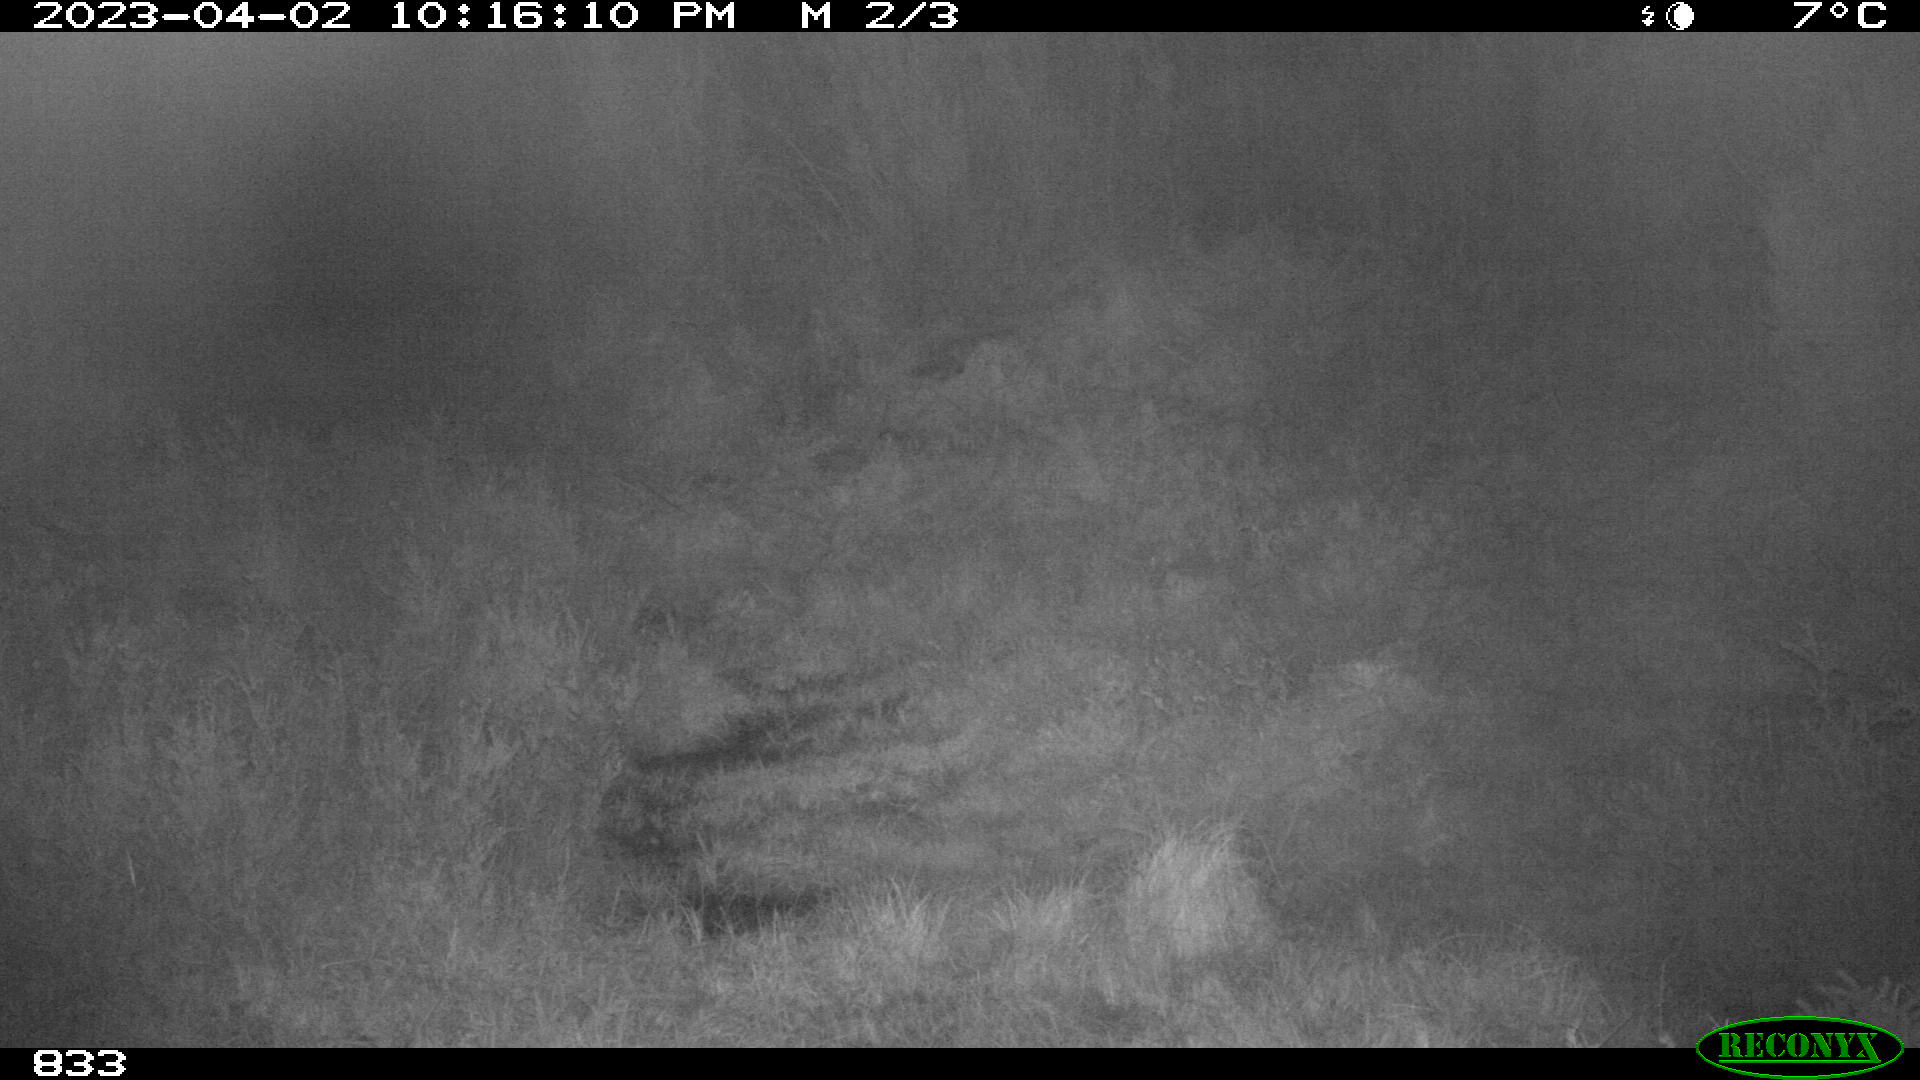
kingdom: Animalia
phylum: Chordata
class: Mammalia
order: Perissodactyla
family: Equidae
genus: Equus
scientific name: Equus caballus
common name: Horse
